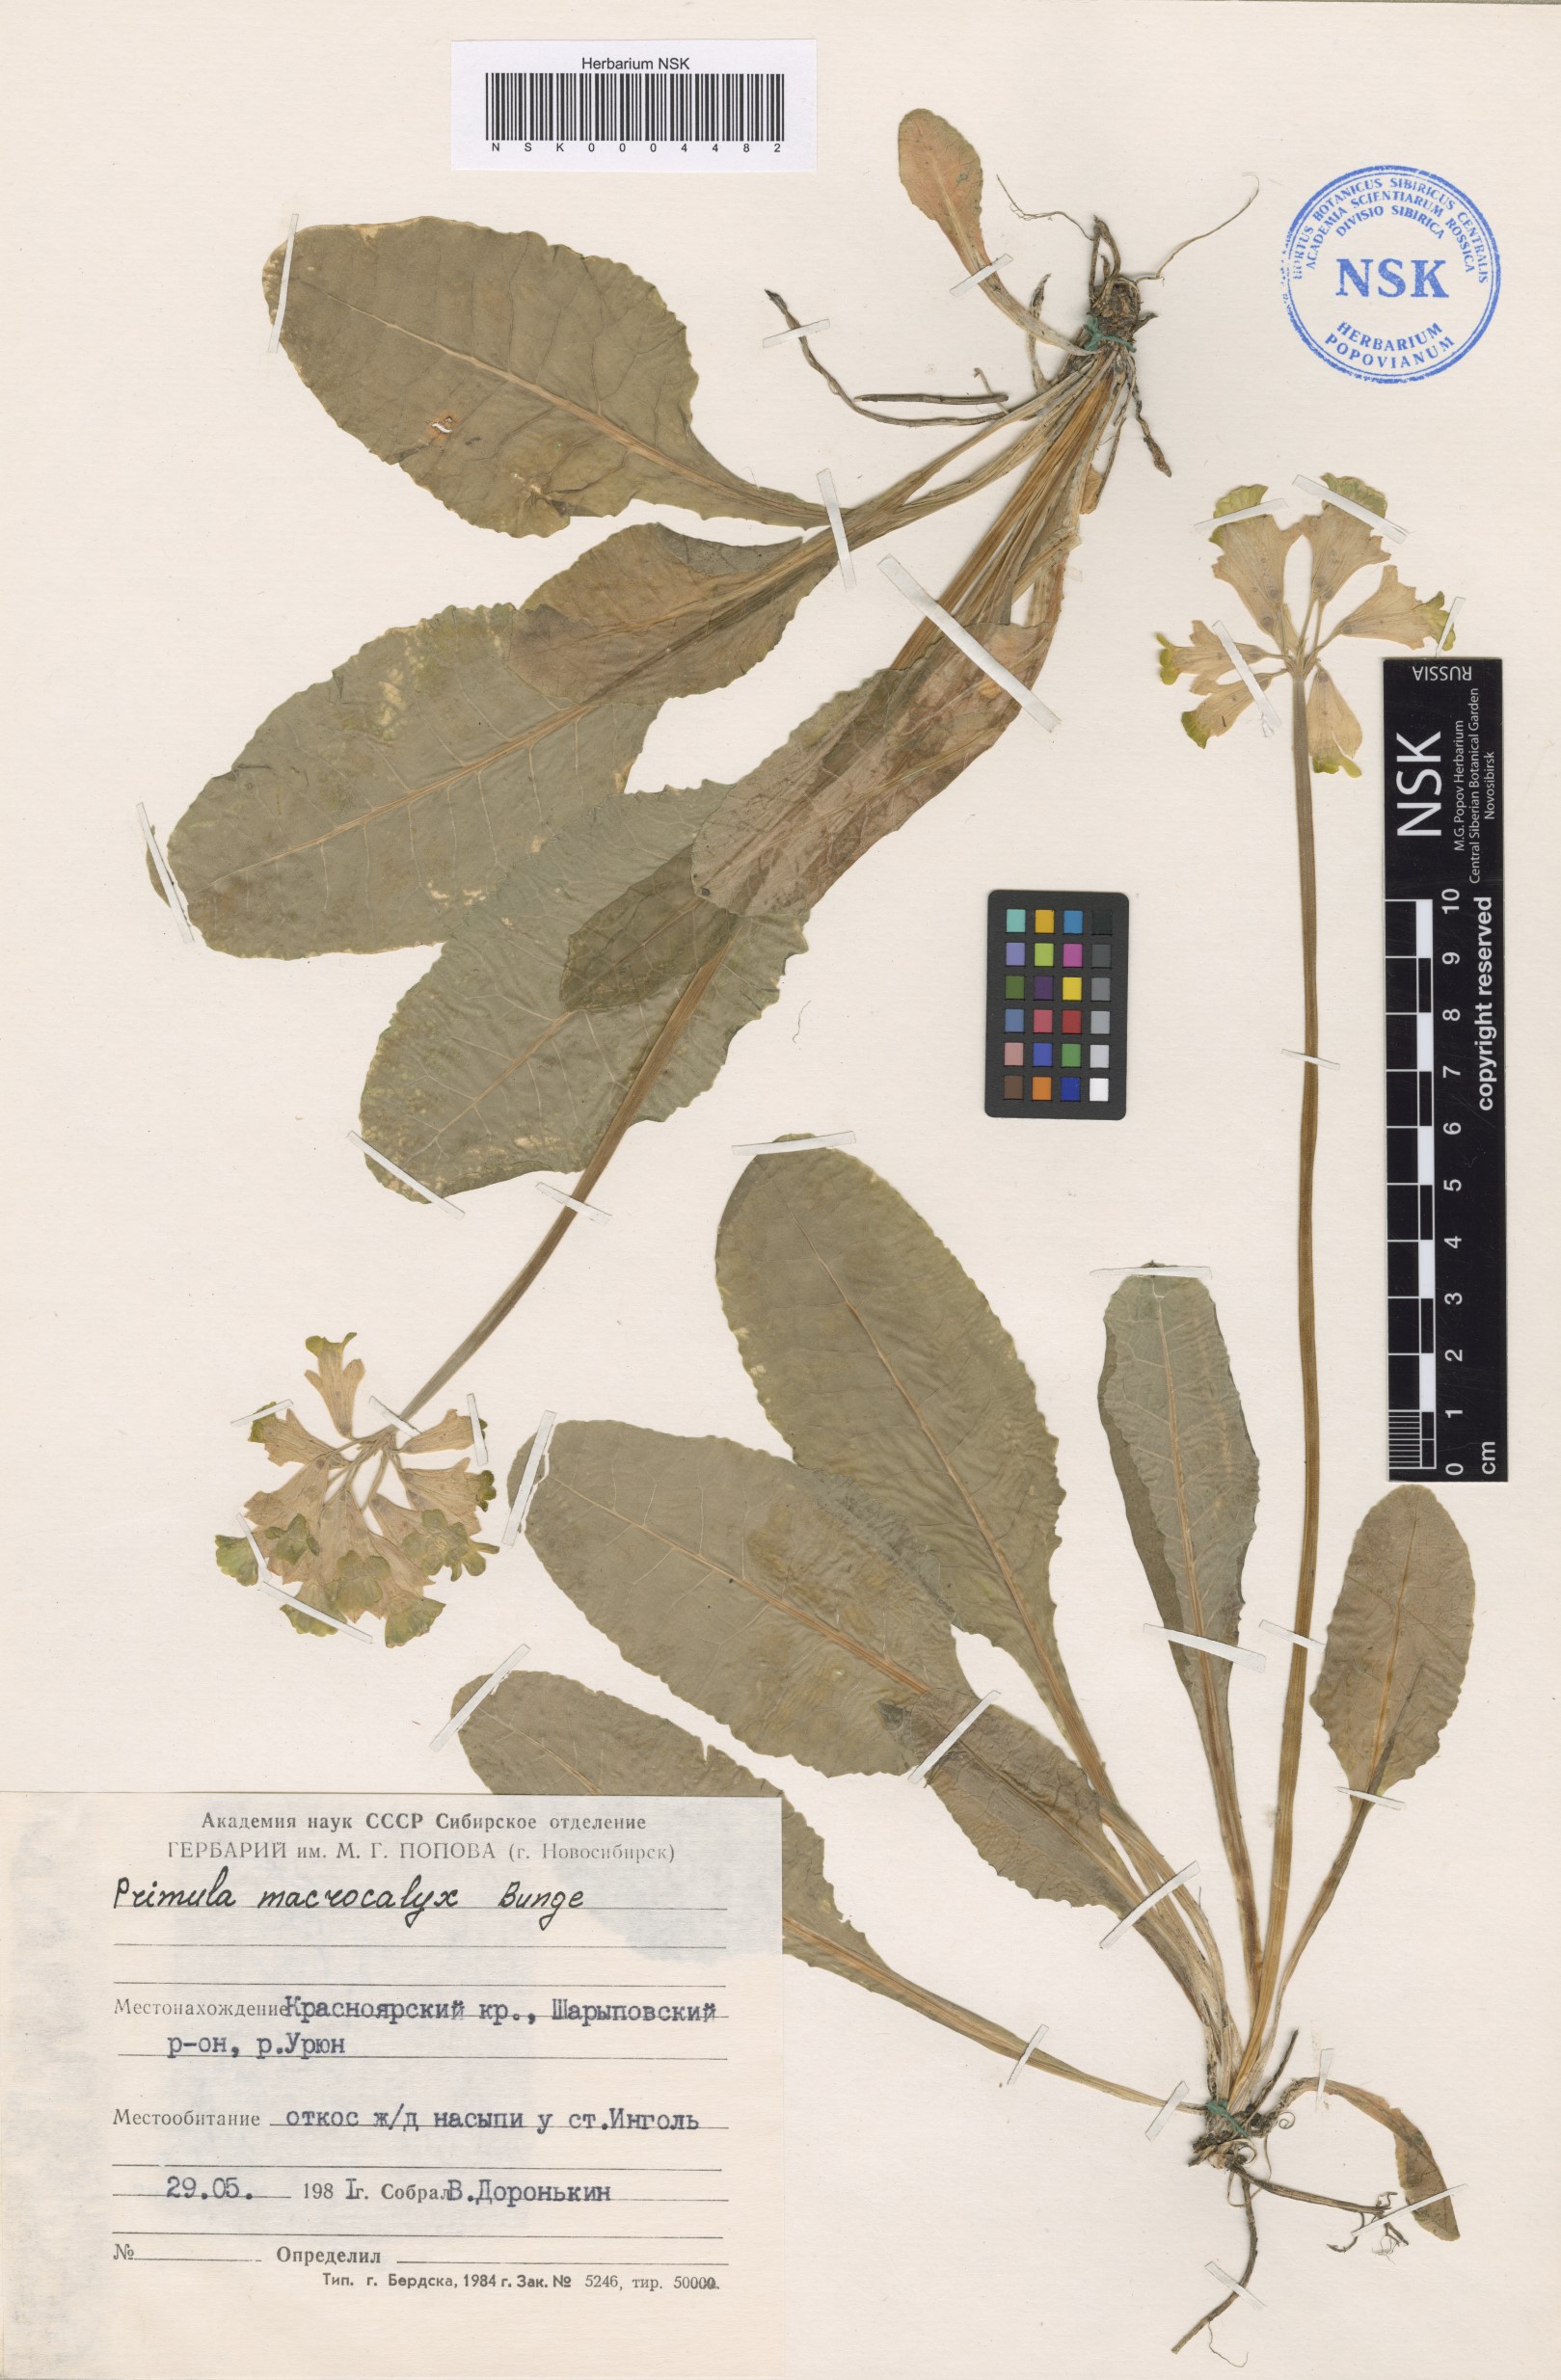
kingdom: Plantae
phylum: Tracheophyta
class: Magnoliopsida
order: Ericales
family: Primulaceae
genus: Primula
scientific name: Primula veris
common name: Cowslip
